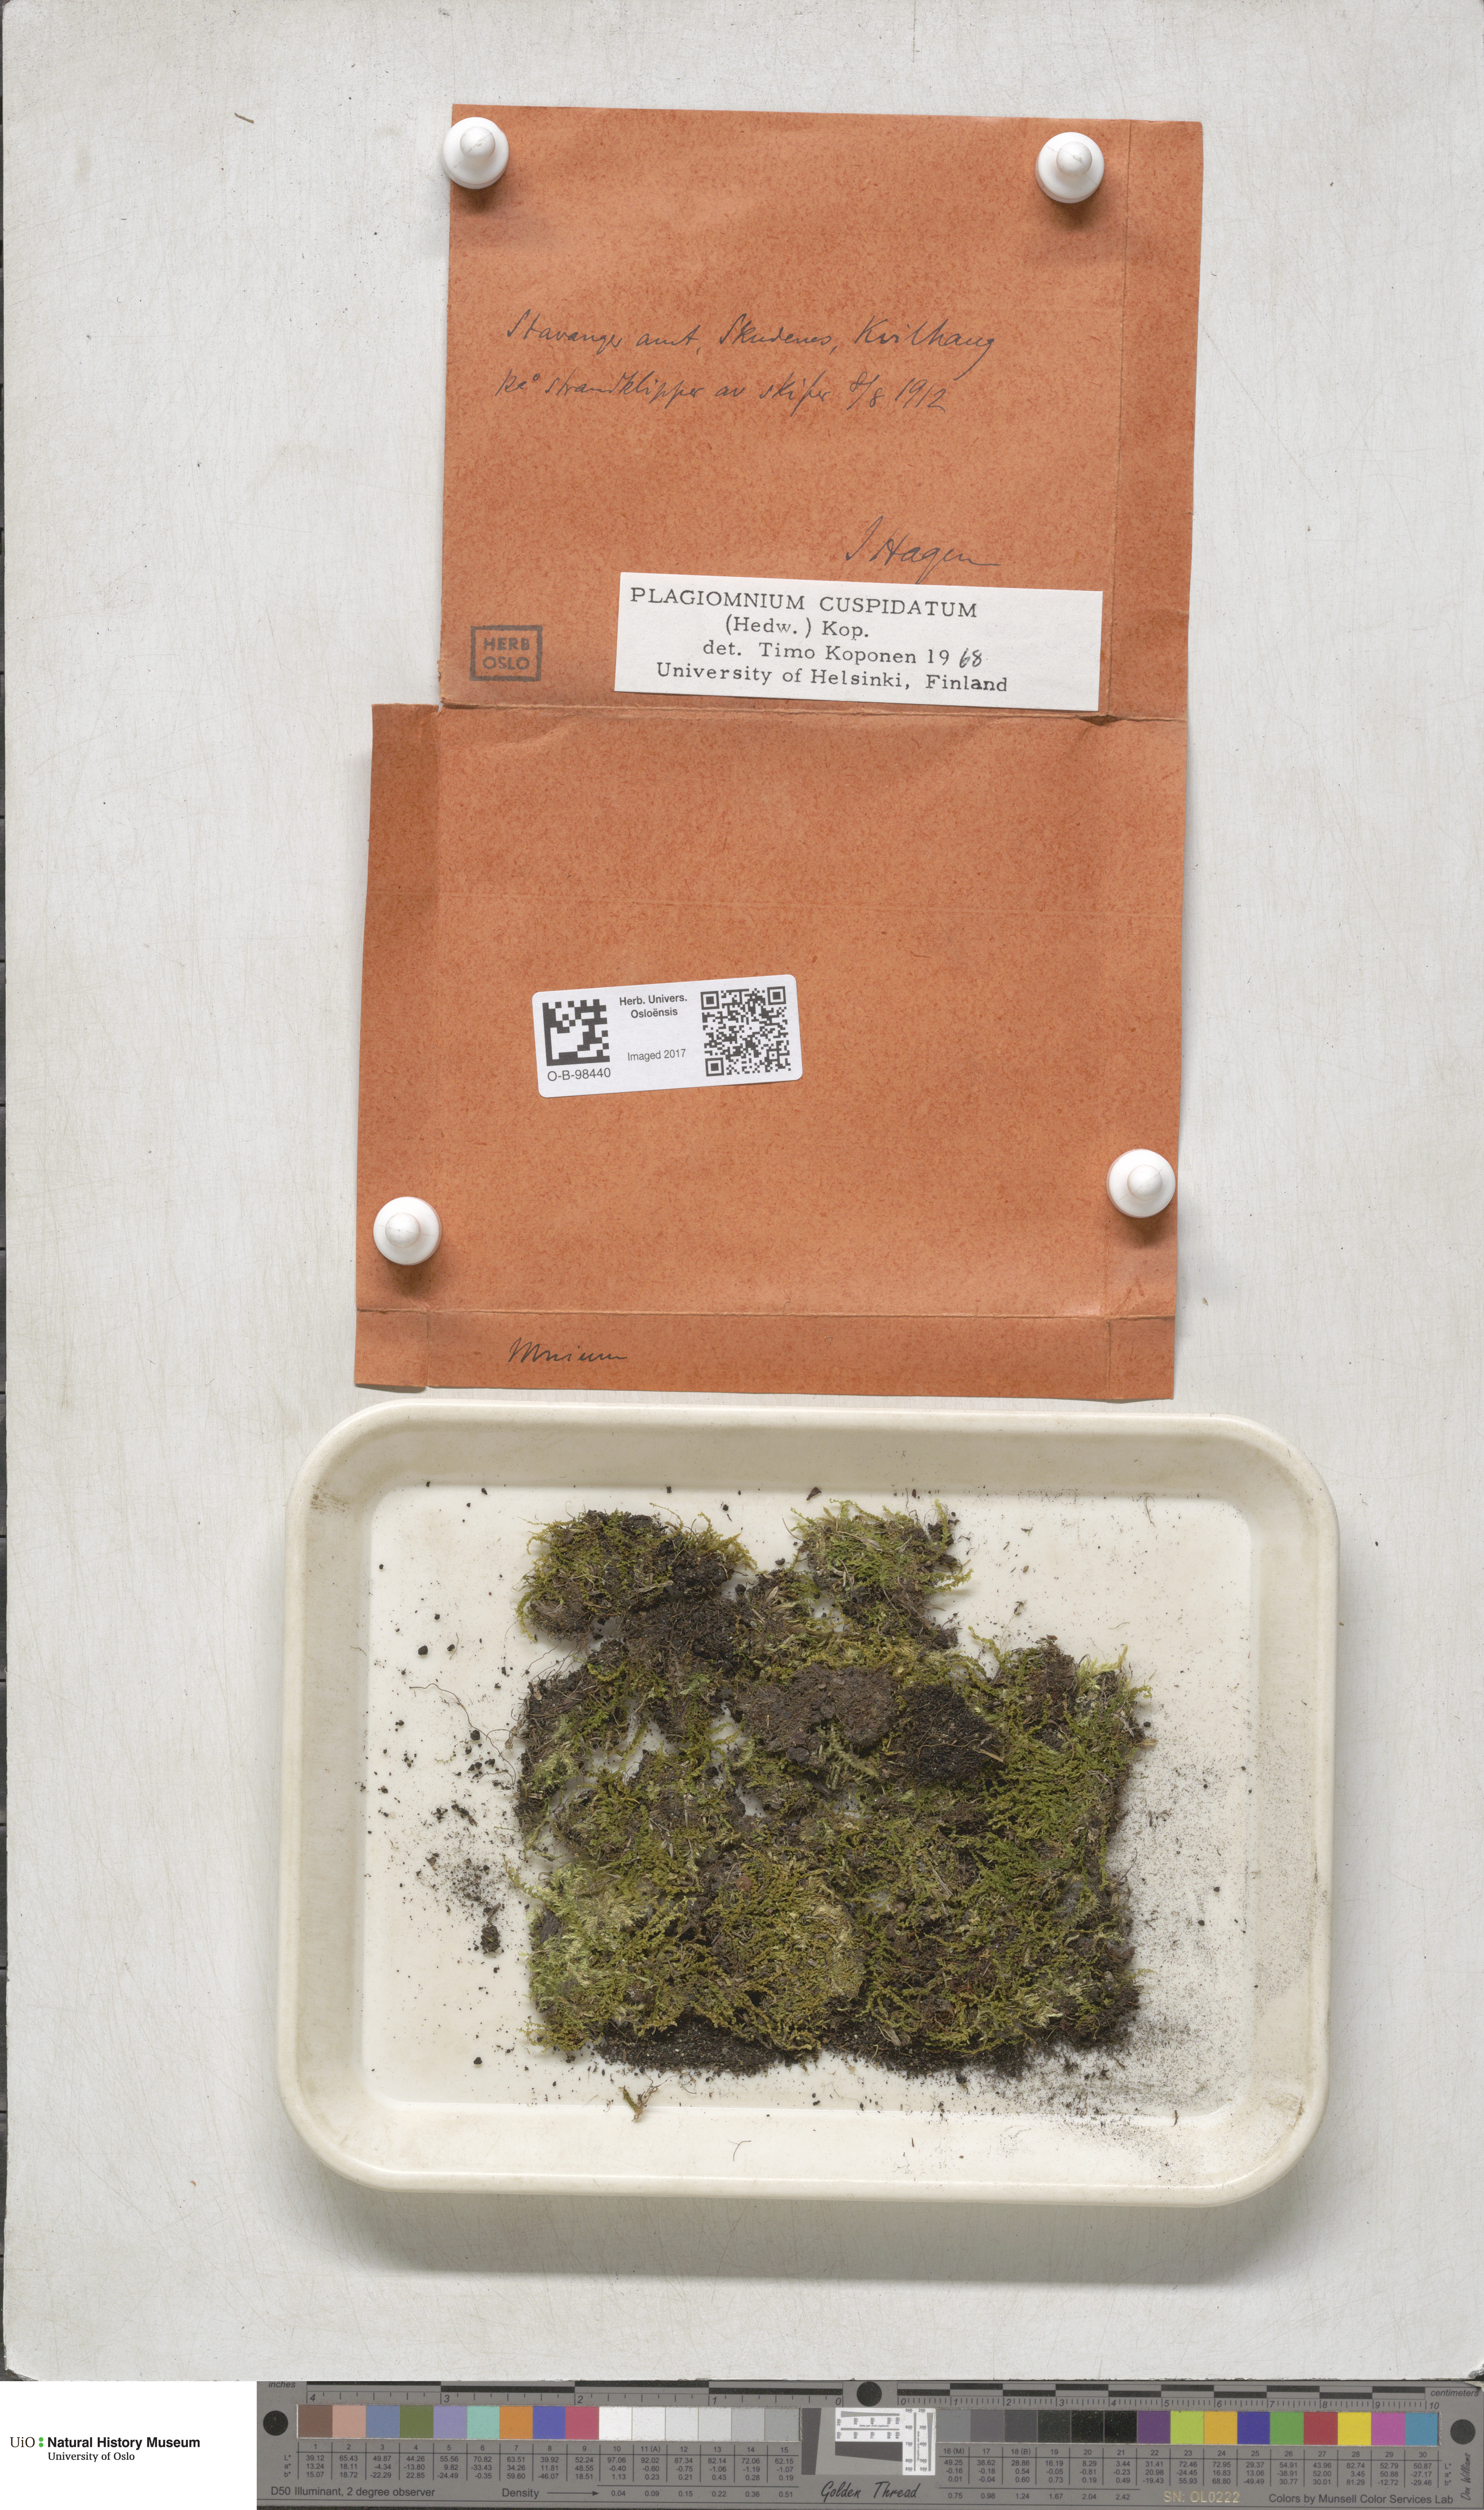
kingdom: Plantae
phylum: Bryophyta
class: Bryopsida
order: Bryales
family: Mniaceae
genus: Plagiomnium
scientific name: Plagiomnium cuspidatum
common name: Woodsy leafy moss
